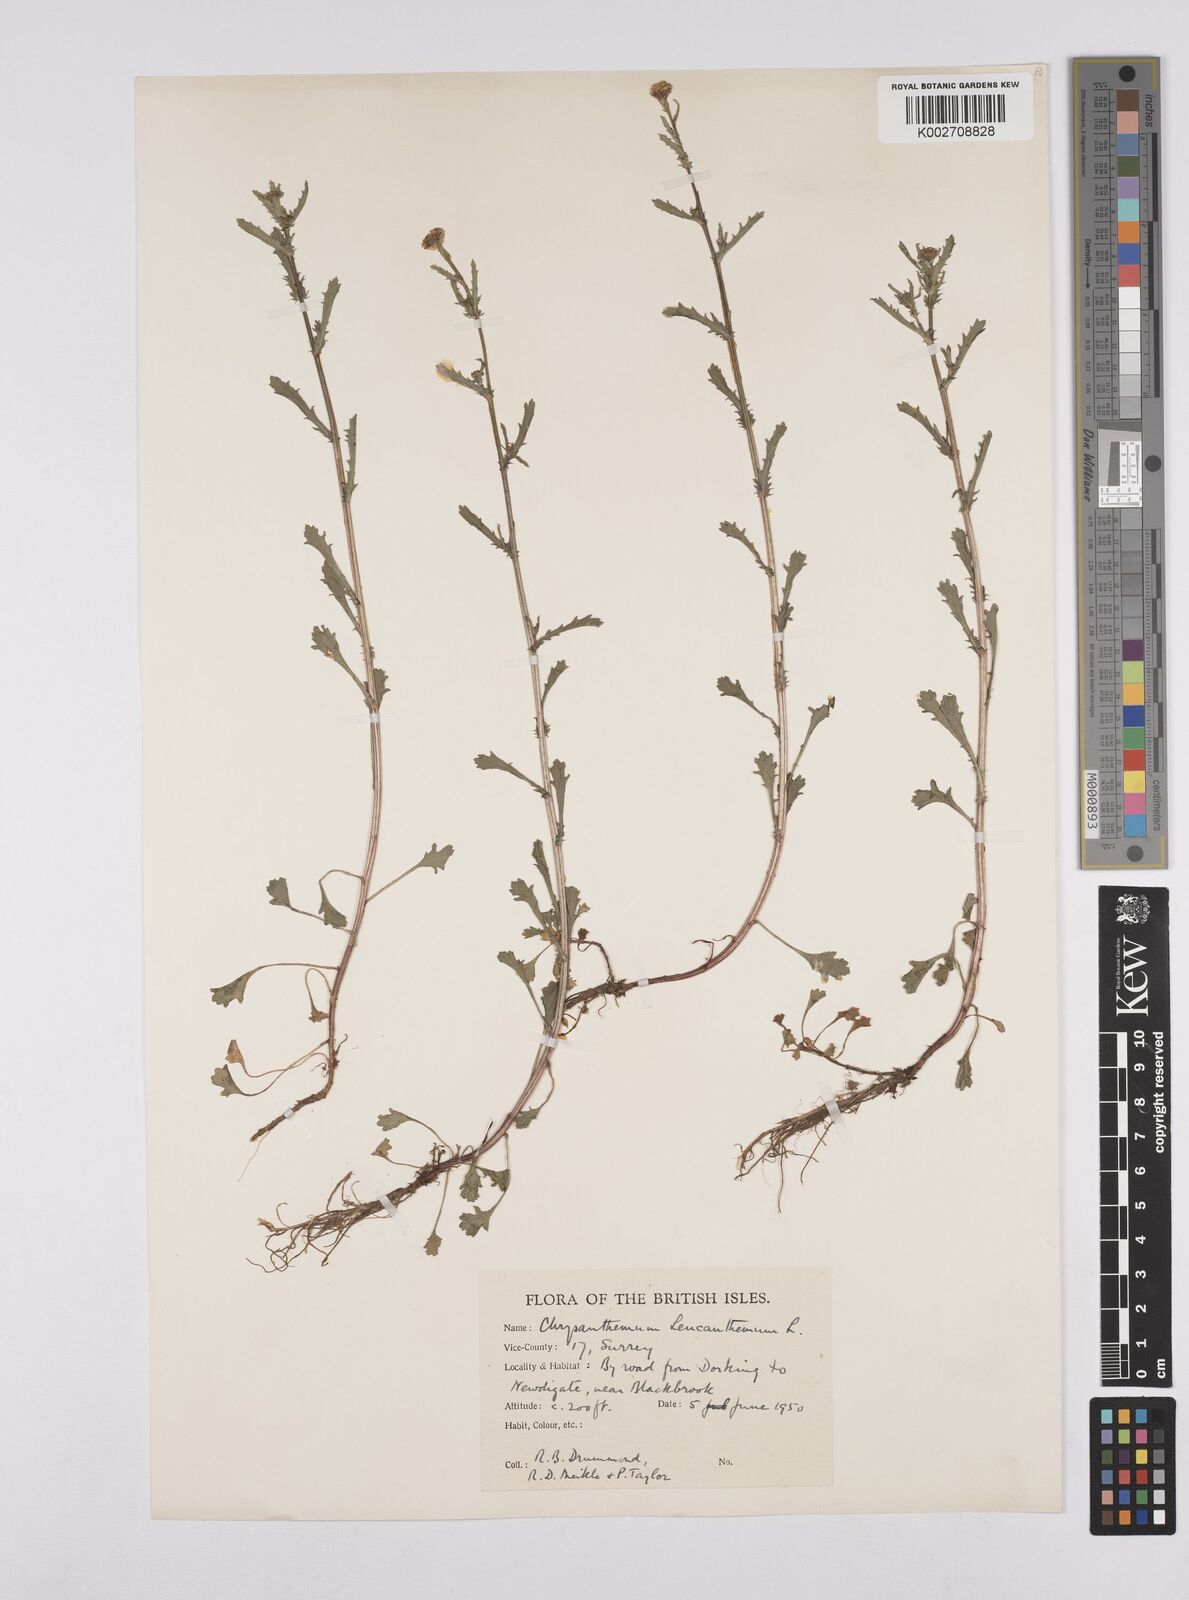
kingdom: Plantae
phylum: Tracheophyta
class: Magnoliopsida
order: Asterales
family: Asteraceae
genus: Leucanthemum
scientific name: Leucanthemum
